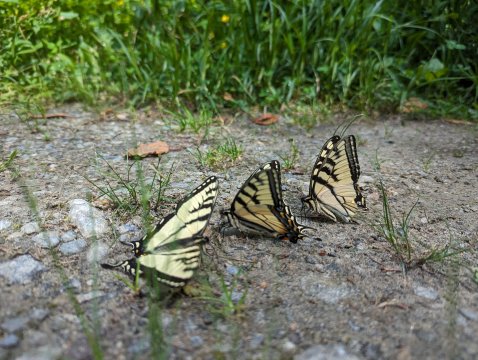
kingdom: Animalia
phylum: Arthropoda
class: Insecta
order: Lepidoptera
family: Papilionidae
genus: Pterourus
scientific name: Pterourus canadensis
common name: Canadian Tiger Swallowtail
